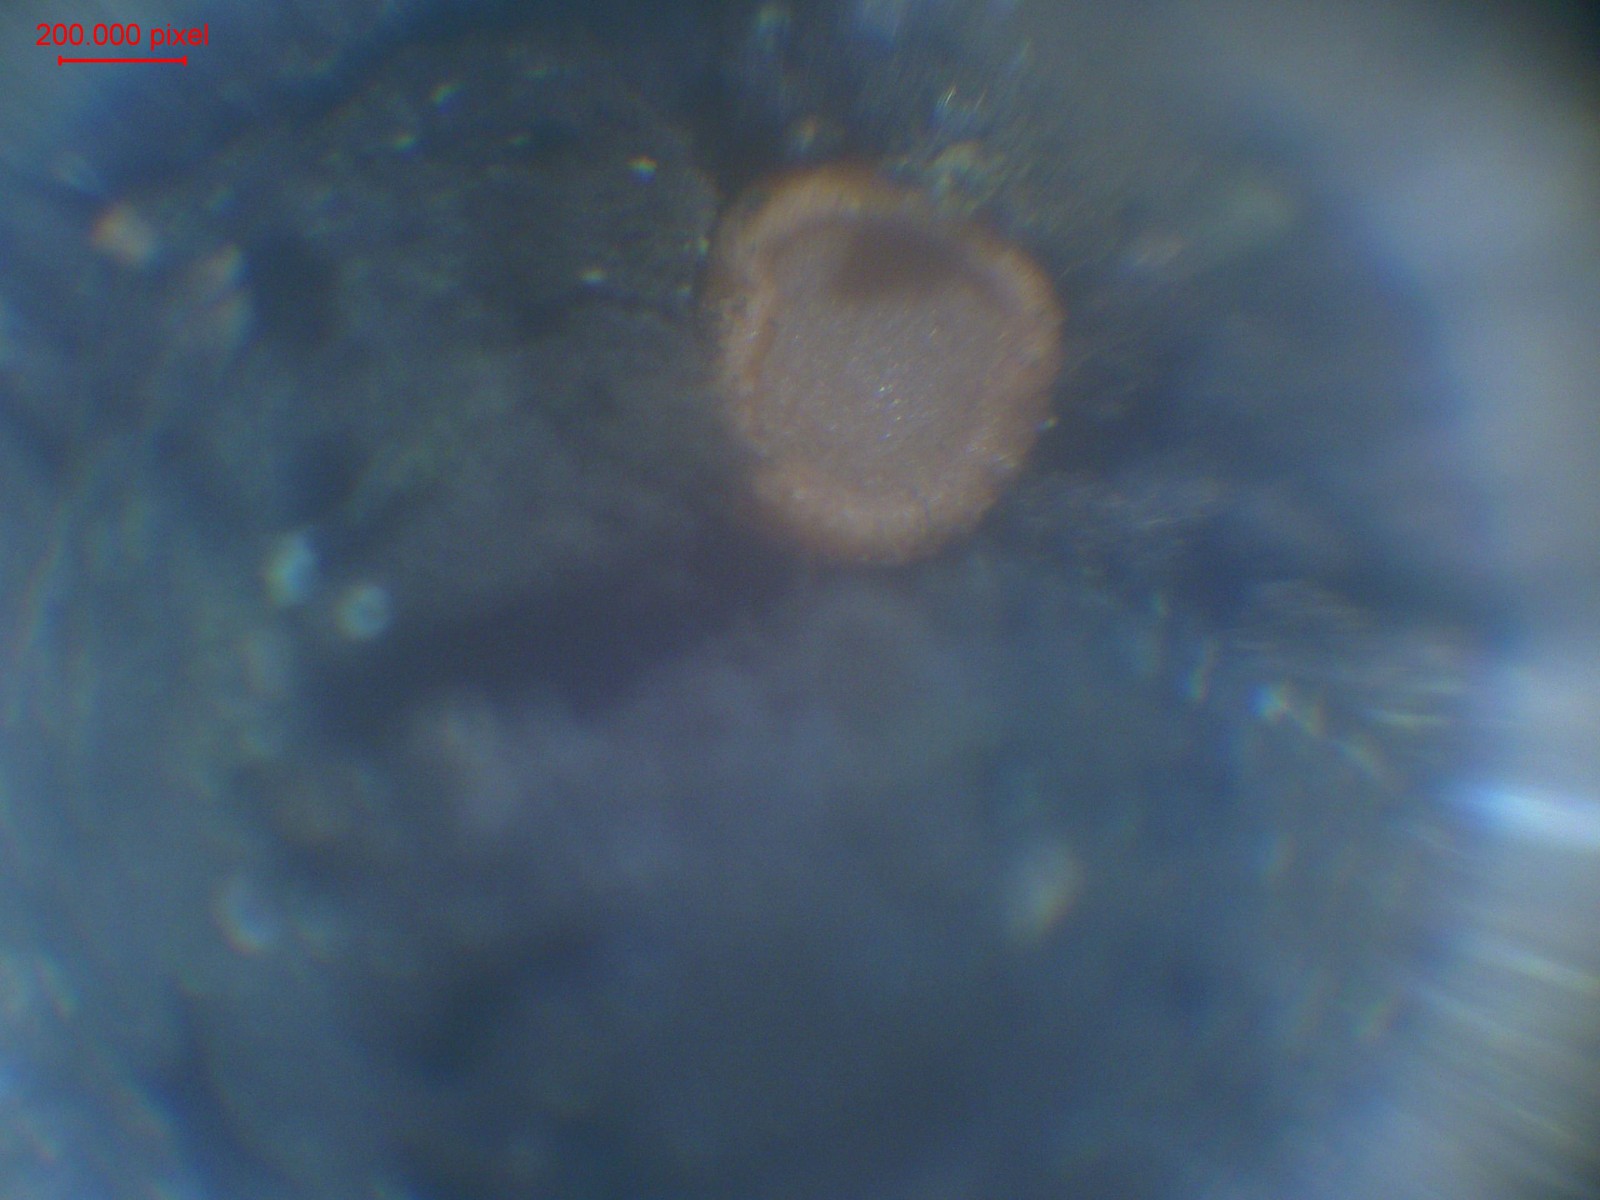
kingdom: Fungi
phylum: Ascomycota
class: Sareomycetes
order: Sareales
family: Sareaceae
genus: Sarea
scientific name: Sarea resinae
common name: orangegul harpiksskive
